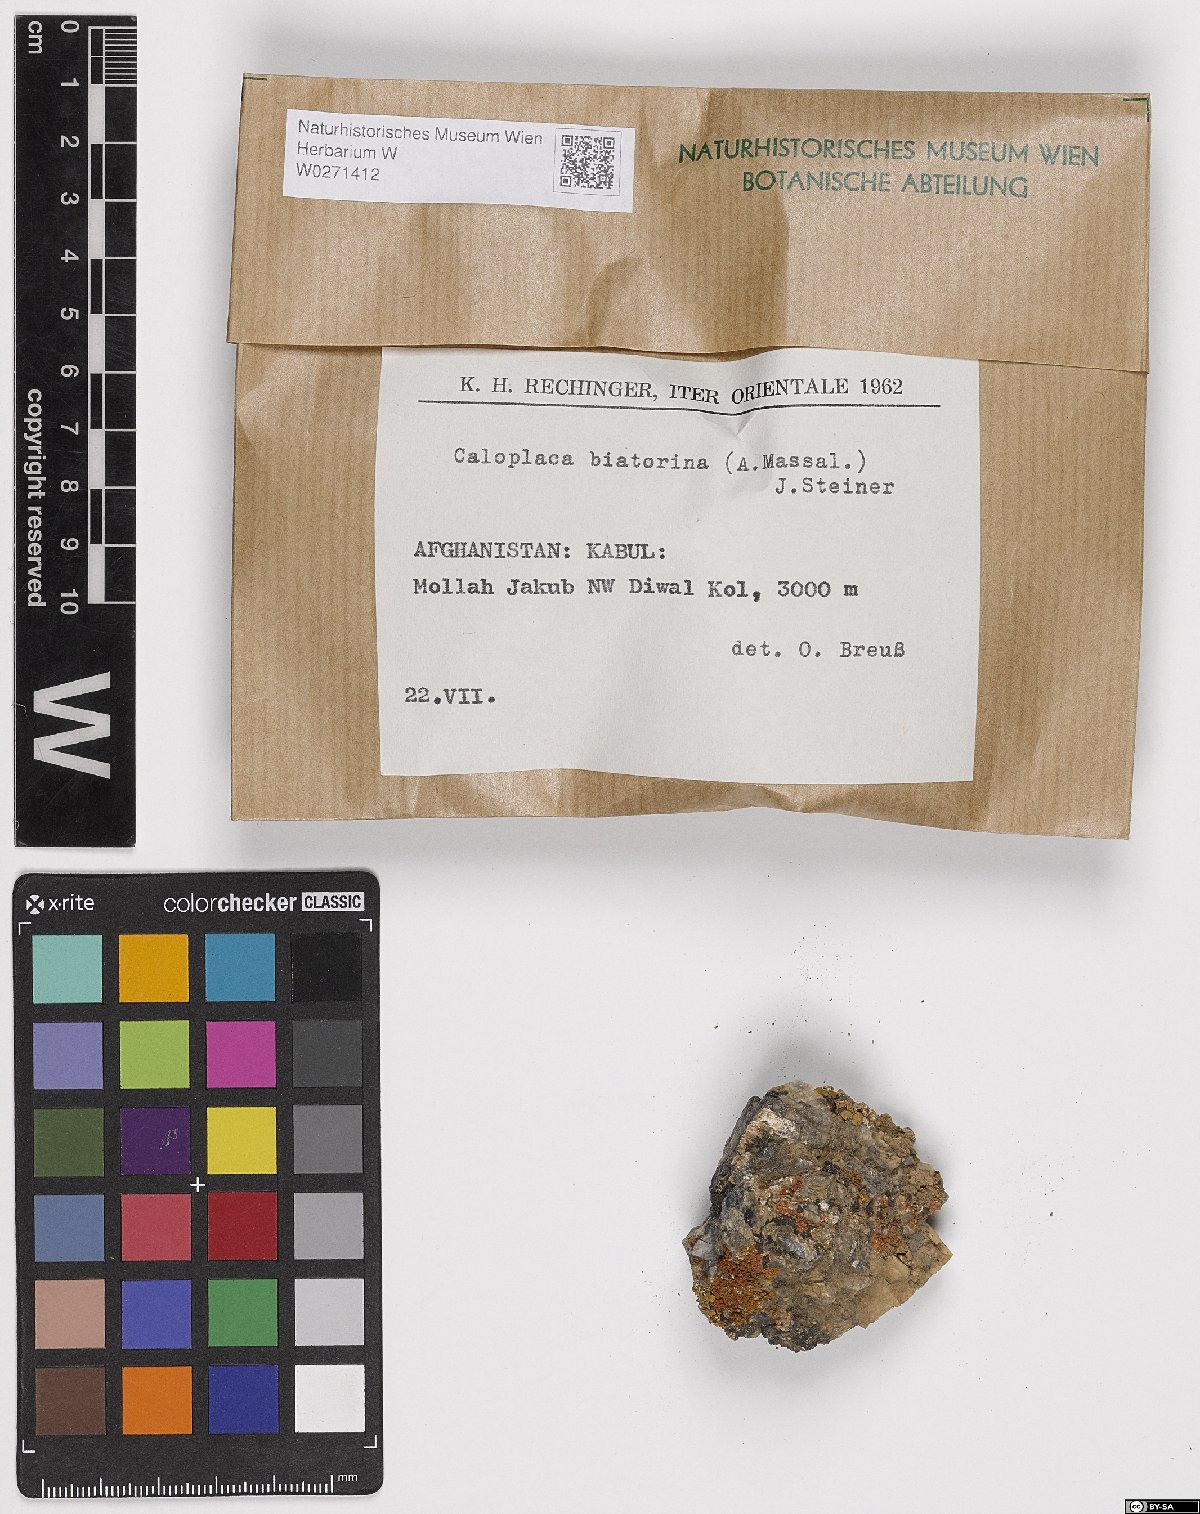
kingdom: Fungi
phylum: Ascomycota
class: Lecanoromycetes
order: Teloschistales
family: Teloschistaceae
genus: Calogaya
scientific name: Calogaya biatorina
